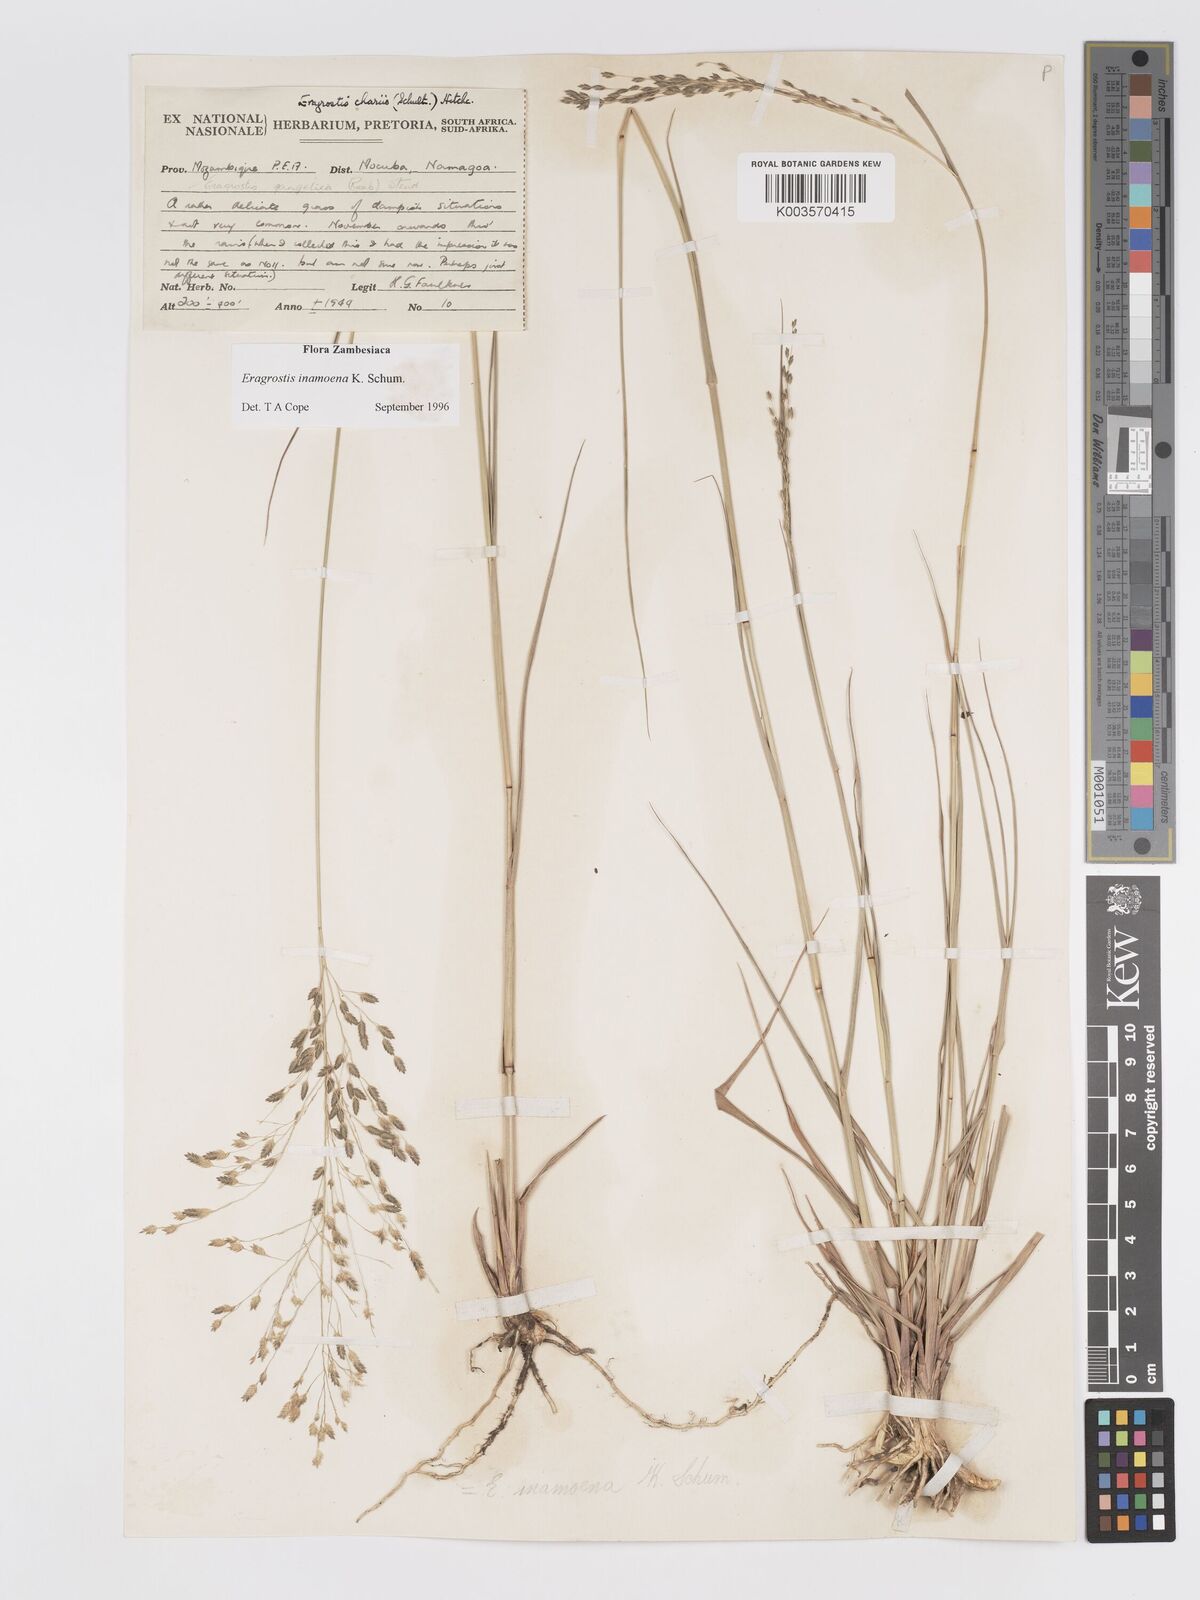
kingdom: Plantae
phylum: Tracheophyta
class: Liliopsida
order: Poales
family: Poaceae
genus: Eragrostis
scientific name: Eragrostis inamoena
